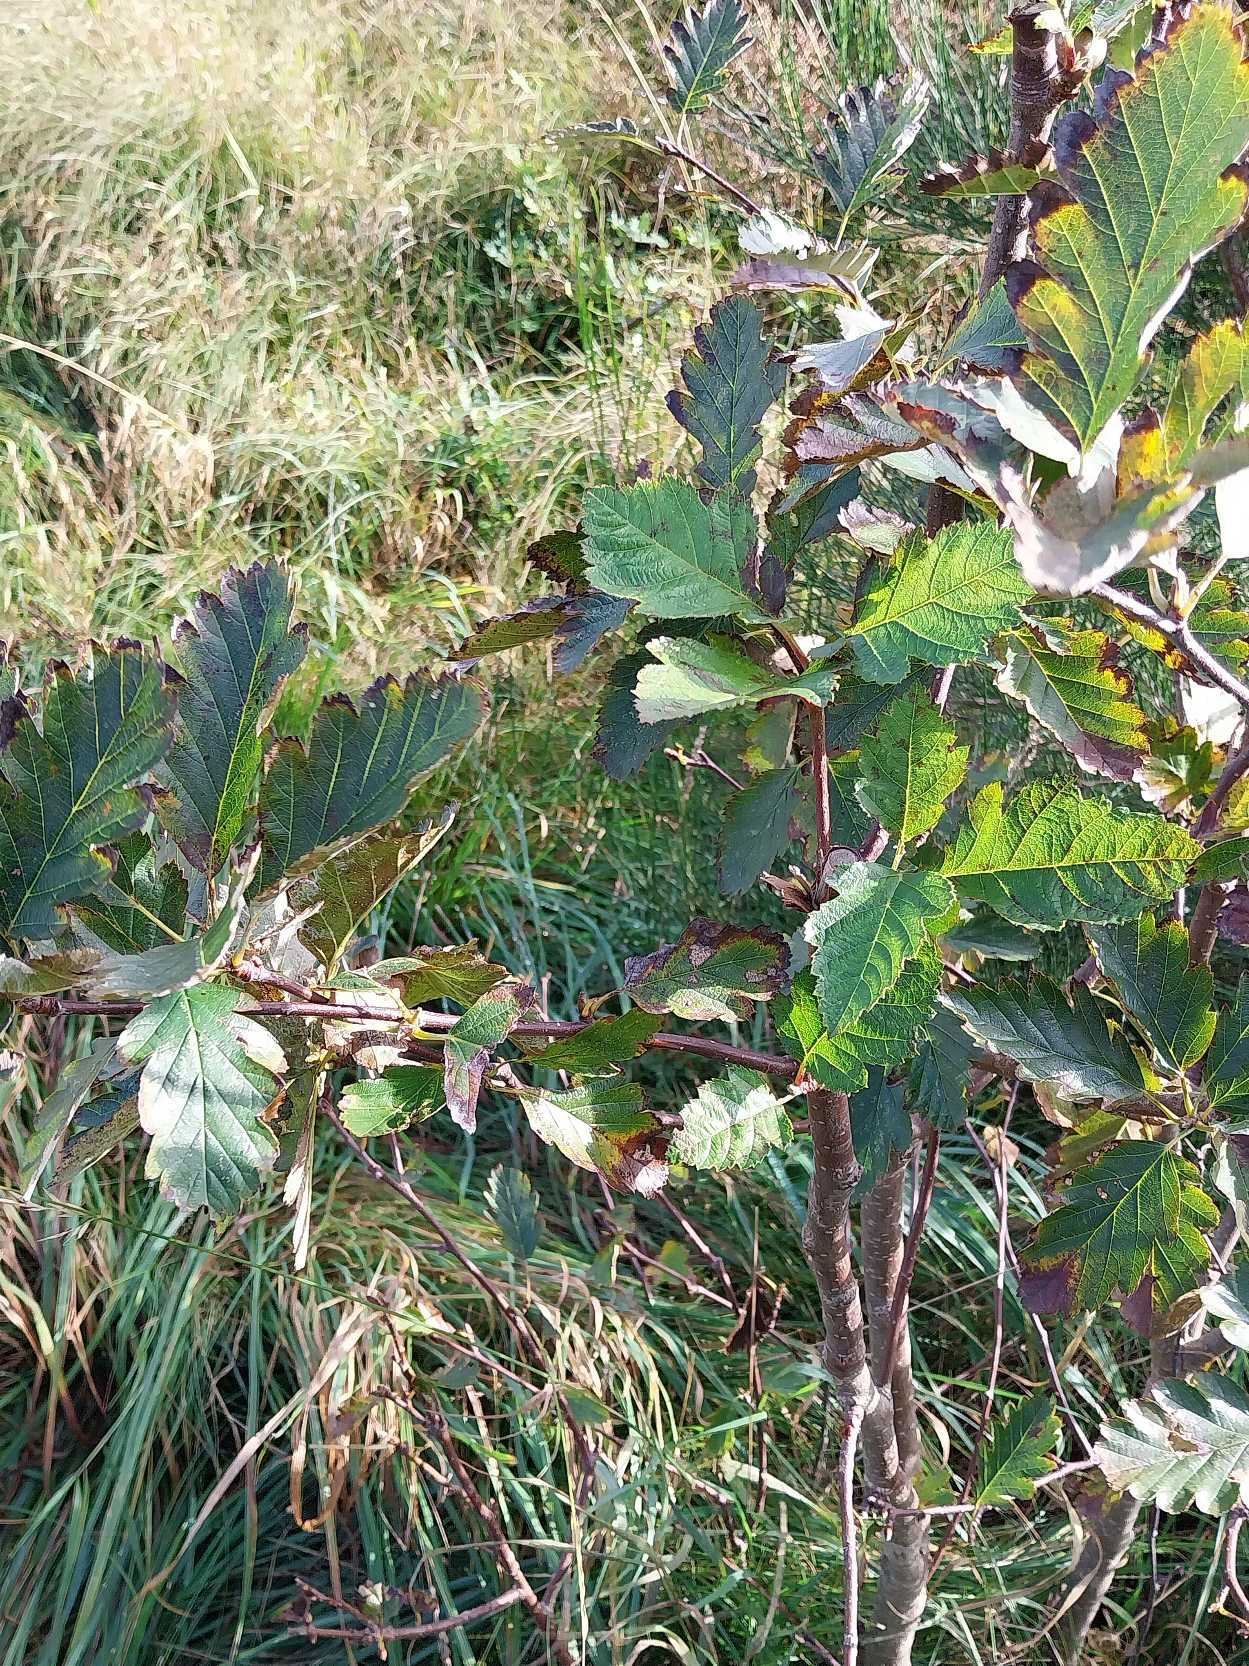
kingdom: Plantae
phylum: Tracheophyta
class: Magnoliopsida
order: Rosales
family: Rosaceae
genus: Scandosorbus
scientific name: Scandosorbus intermedia
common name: Selje-røn
